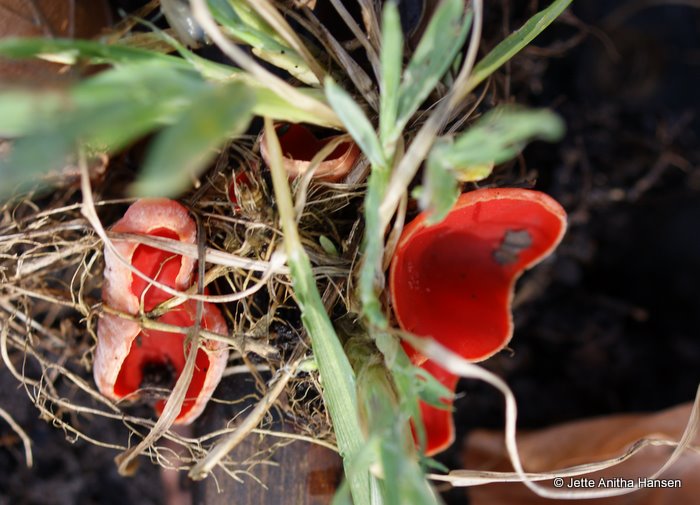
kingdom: Fungi
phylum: Ascomycota
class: Pezizomycetes
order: Pezizales
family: Sarcoscyphaceae
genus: Sarcoscypha
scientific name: Sarcoscypha austriaca
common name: krølhåret pragtbæger
